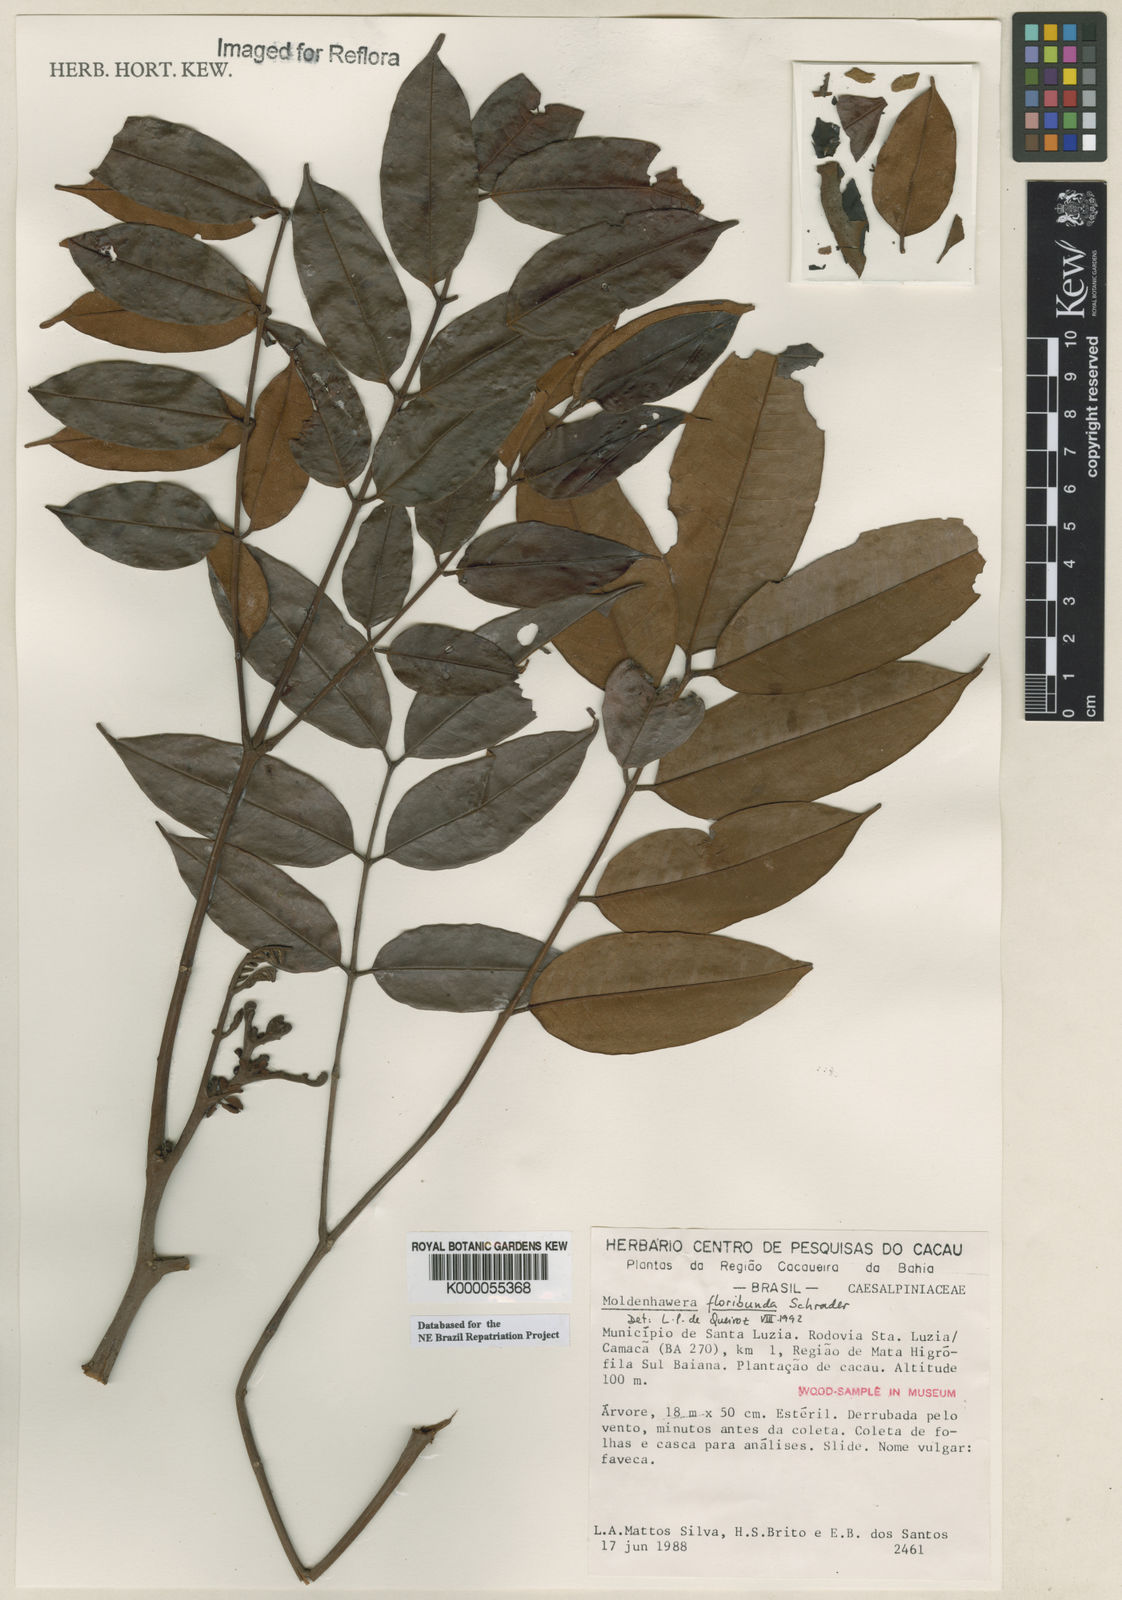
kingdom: Plantae
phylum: Tracheophyta
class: Magnoliopsida
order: Fabales
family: Fabaceae
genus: Moldenhawera
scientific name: Moldenhawera floribunda
